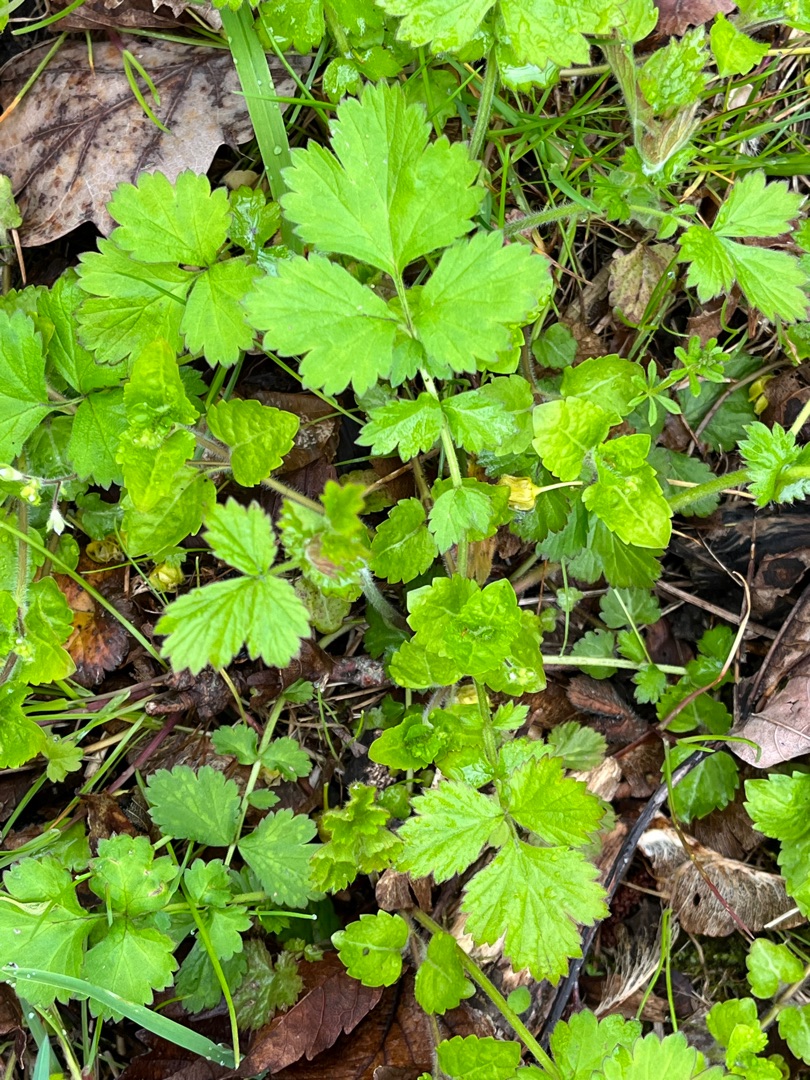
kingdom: Plantae
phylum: Tracheophyta
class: Magnoliopsida
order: Rosales
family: Rosaceae
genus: Geum
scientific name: Geum urbanum
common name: Feber-nellikerod
